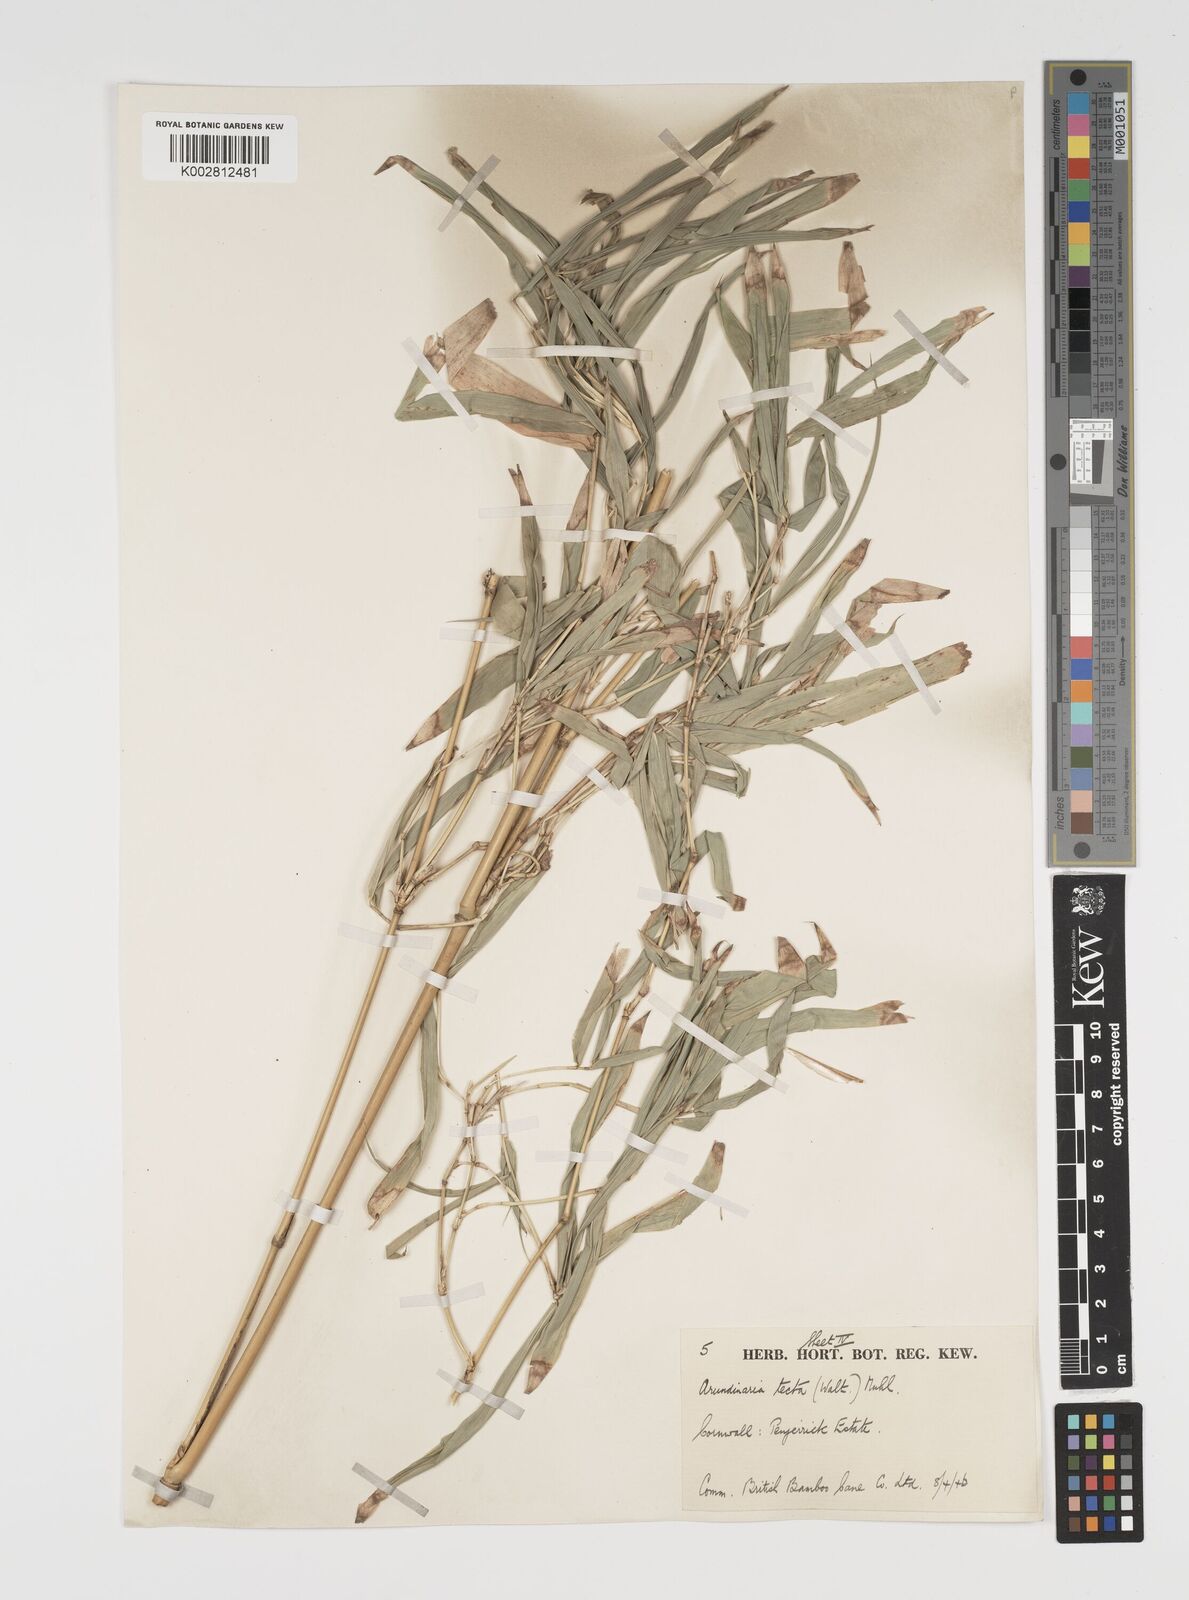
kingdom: Plantae
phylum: Tracheophyta
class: Liliopsida
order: Poales
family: Poaceae
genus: Arundinaria
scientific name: Arundinaria tecta
